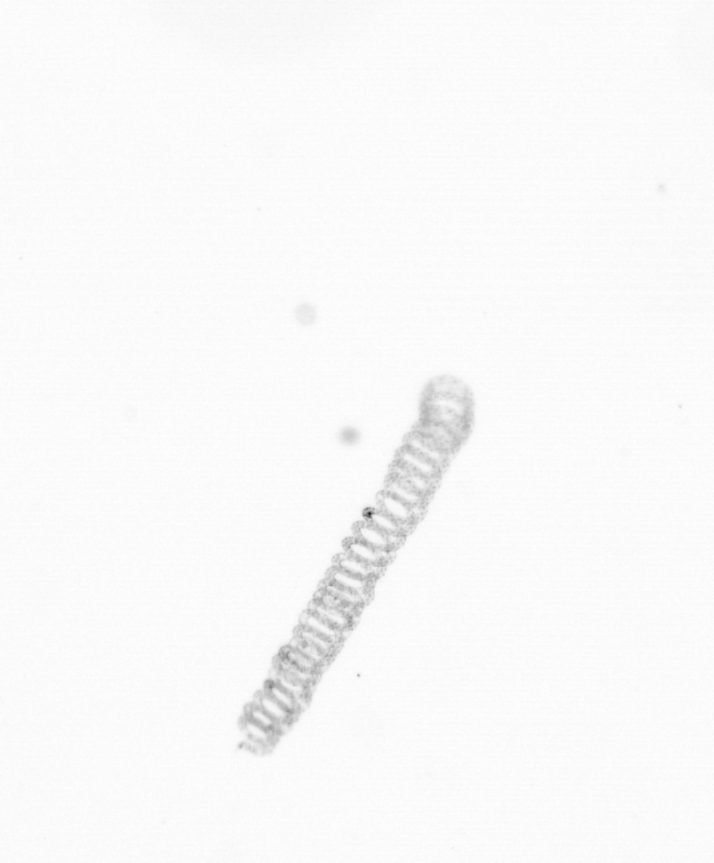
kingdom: Chromista
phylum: Ochrophyta
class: Bacillariophyceae
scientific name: Bacillariophyceae
